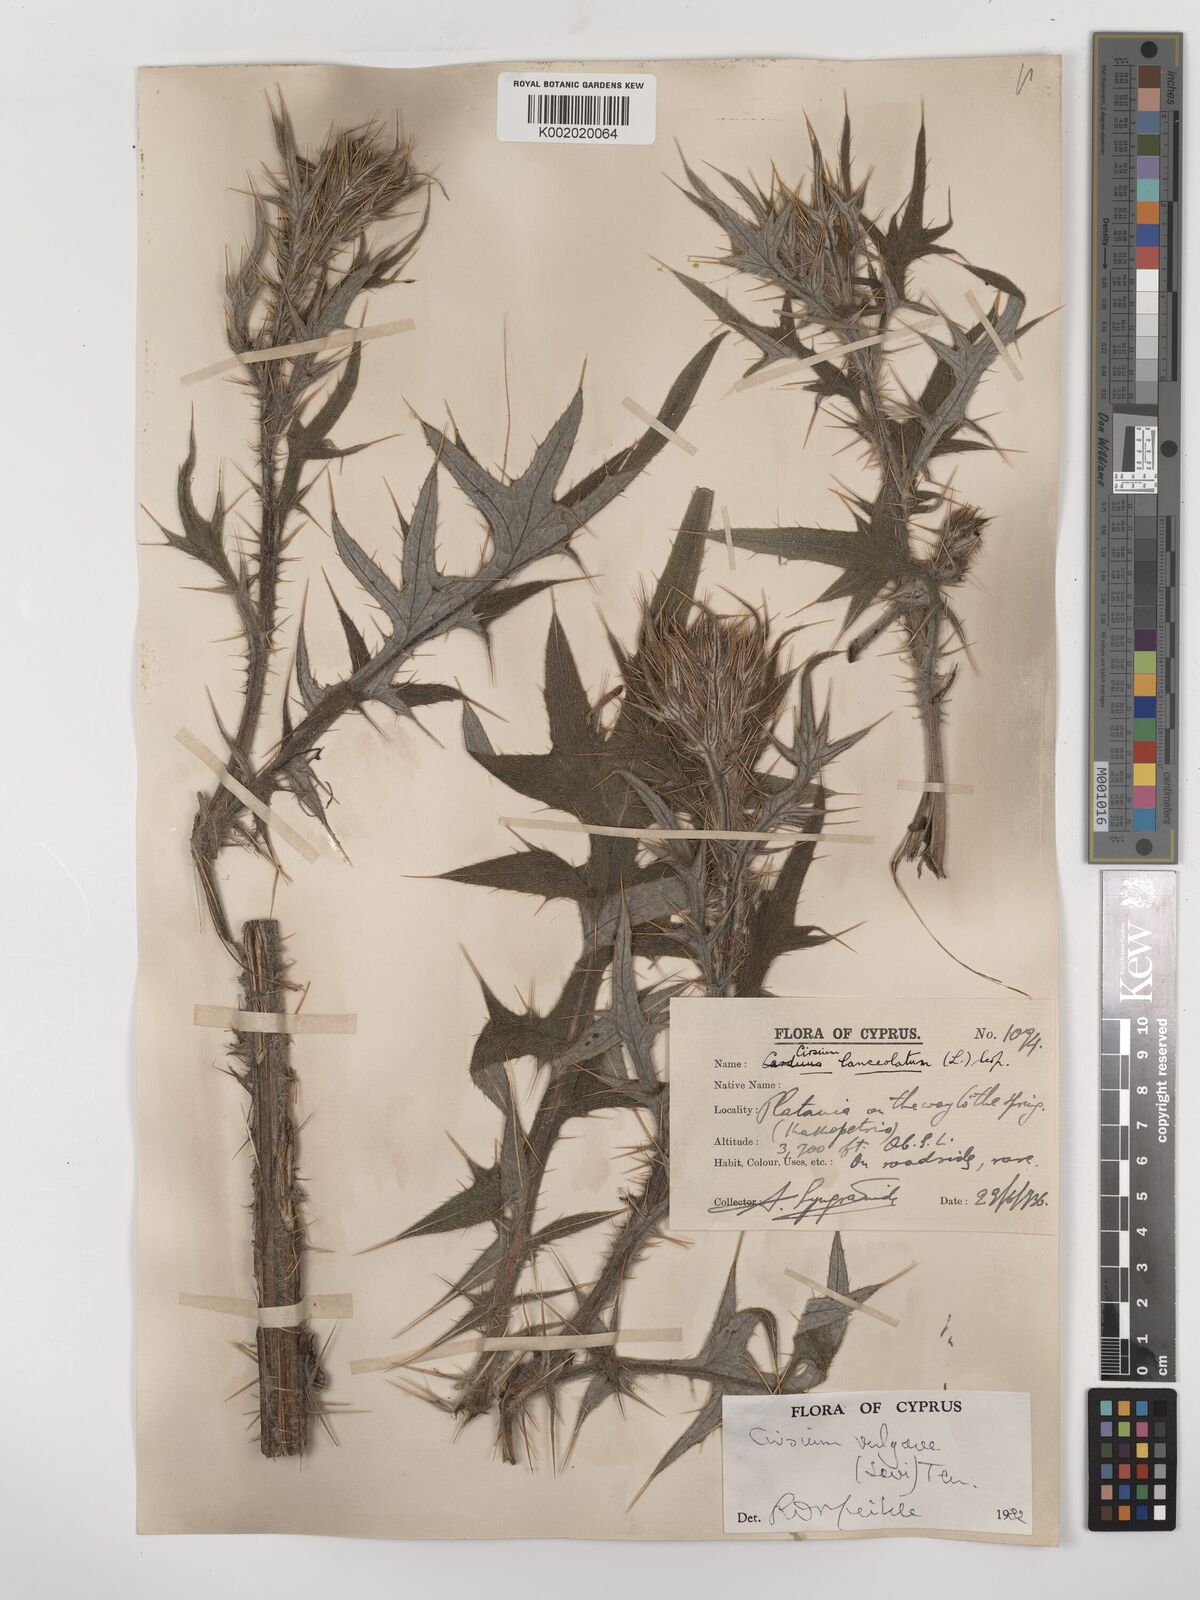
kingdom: Plantae
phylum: Tracheophyta
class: Magnoliopsida
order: Asterales
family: Asteraceae
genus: Cirsium
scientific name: Cirsium vulgare
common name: Bull thistle
